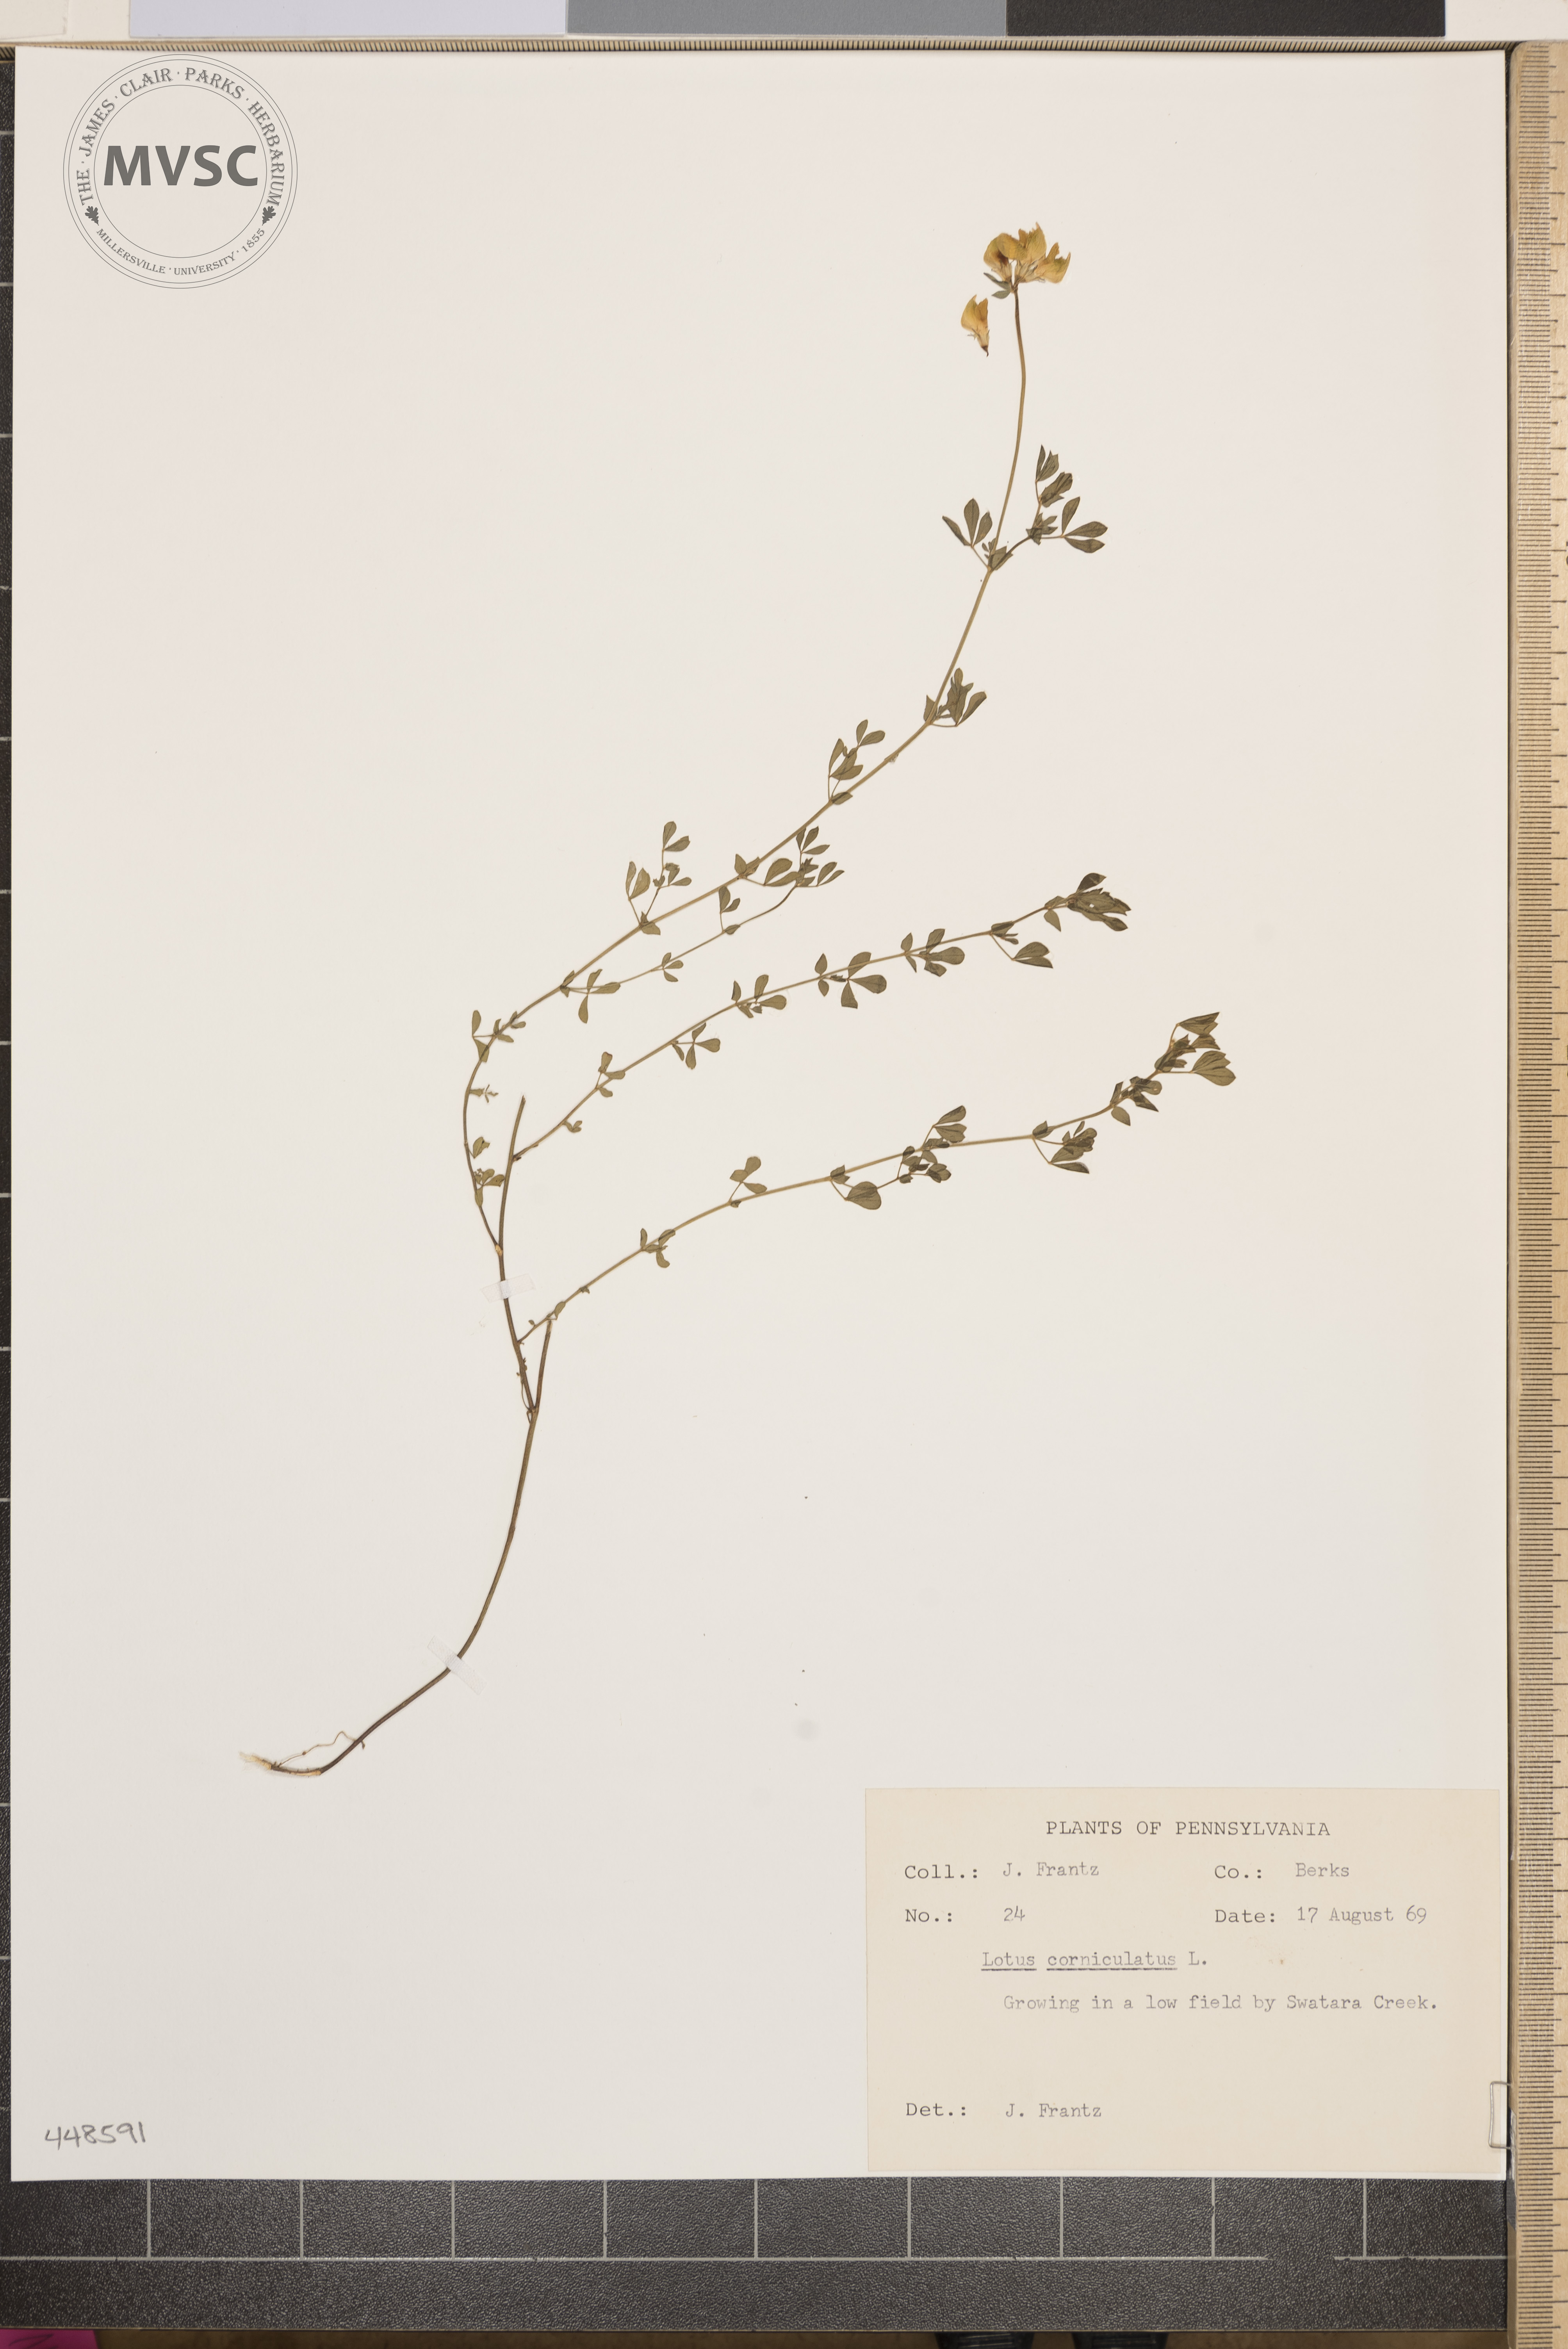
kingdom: Plantae
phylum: Tracheophyta
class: Magnoliopsida
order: Fabales
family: Fabaceae
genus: Lotus
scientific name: Lotus corniculatus
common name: Common bird's-foot-trefoil
